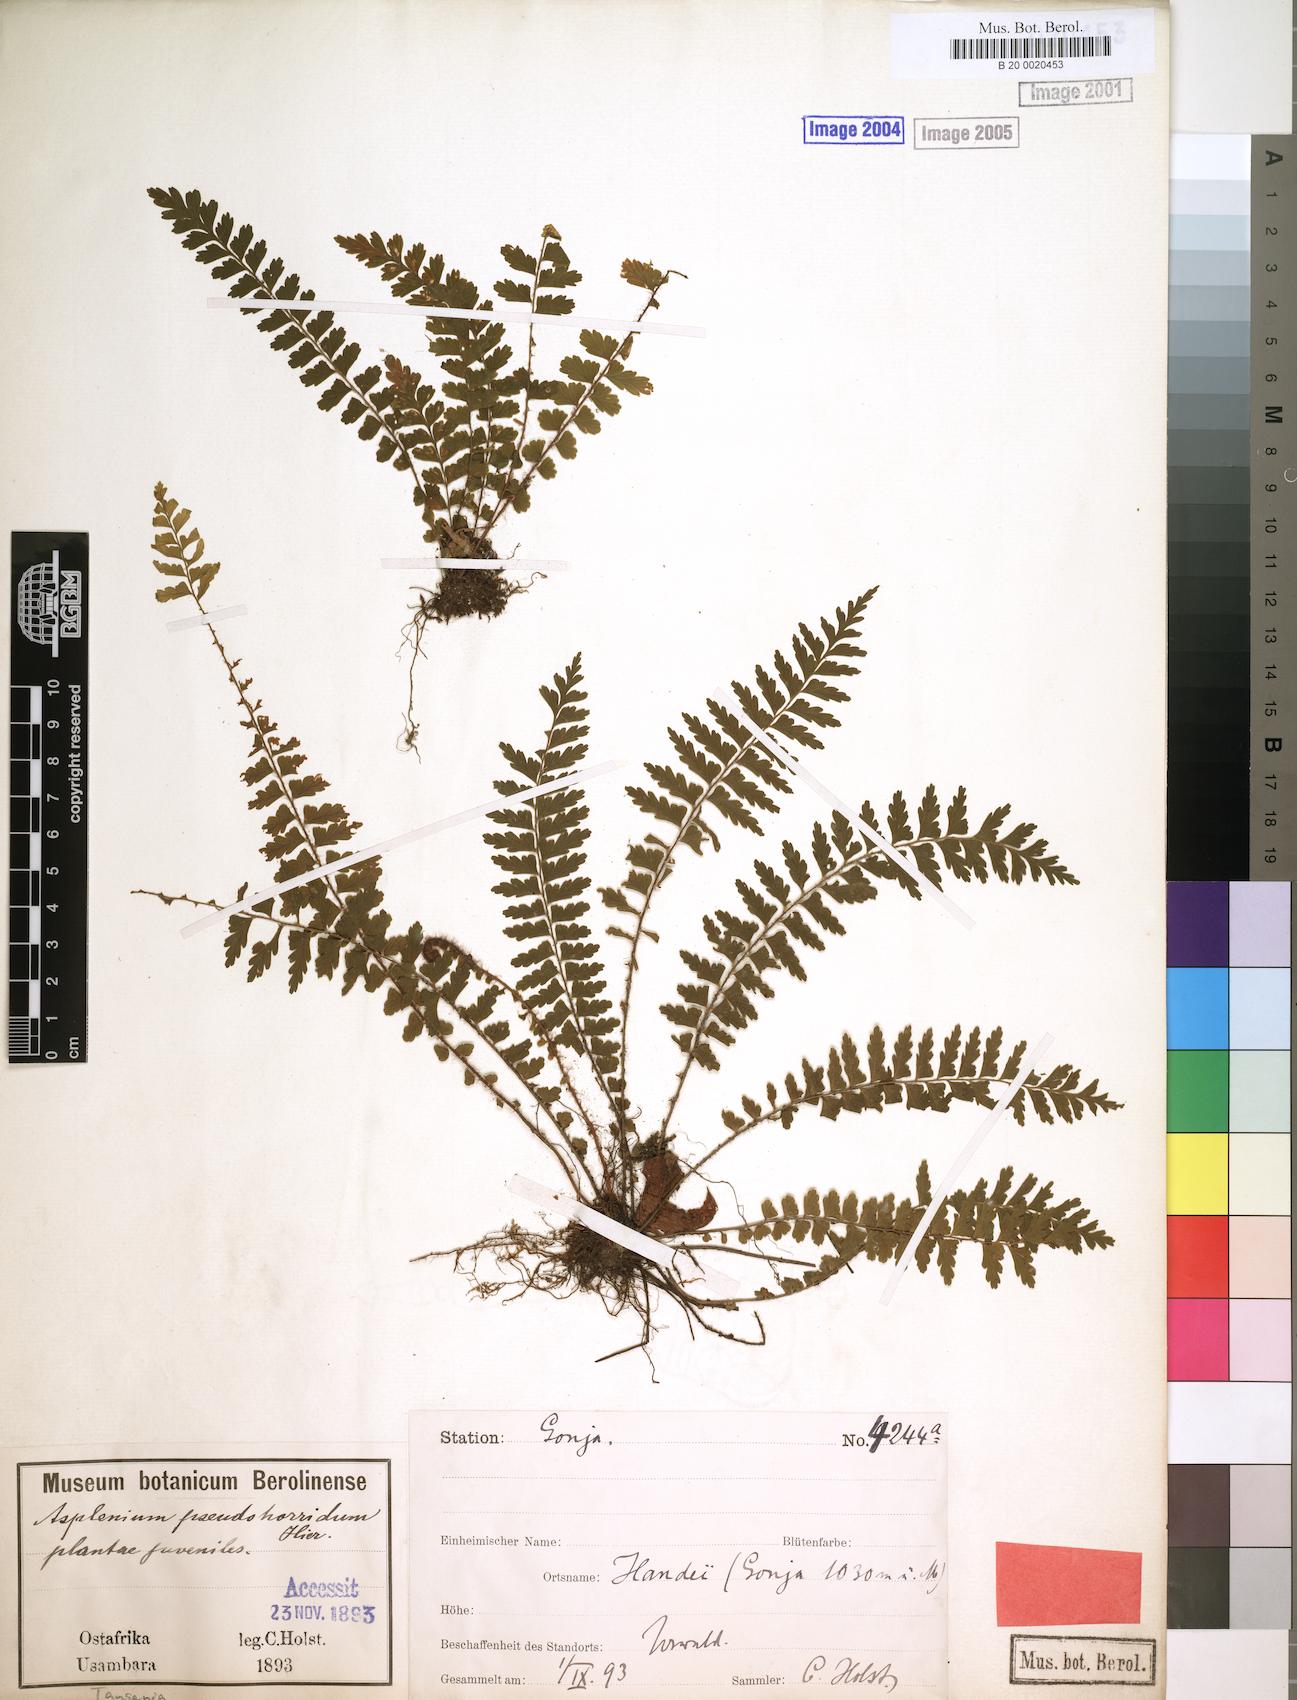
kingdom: Plantae
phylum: Tracheophyta
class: Polypodiopsida
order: Polypodiales
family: Aspleniaceae
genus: Asplenium
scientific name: Asplenium pellucidum
